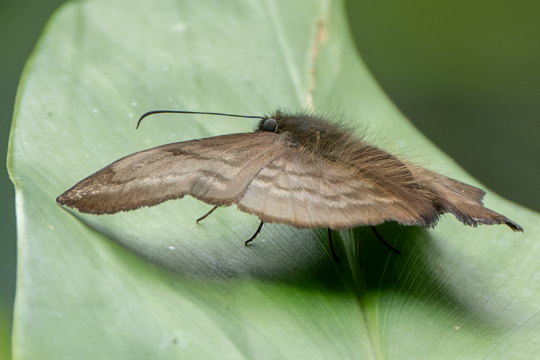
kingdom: Animalia
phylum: Arthropoda
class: Insecta
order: Lepidoptera
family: Hesperiidae
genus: Achlyodes
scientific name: Achlyodes pallida
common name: Pale Sicklewing
